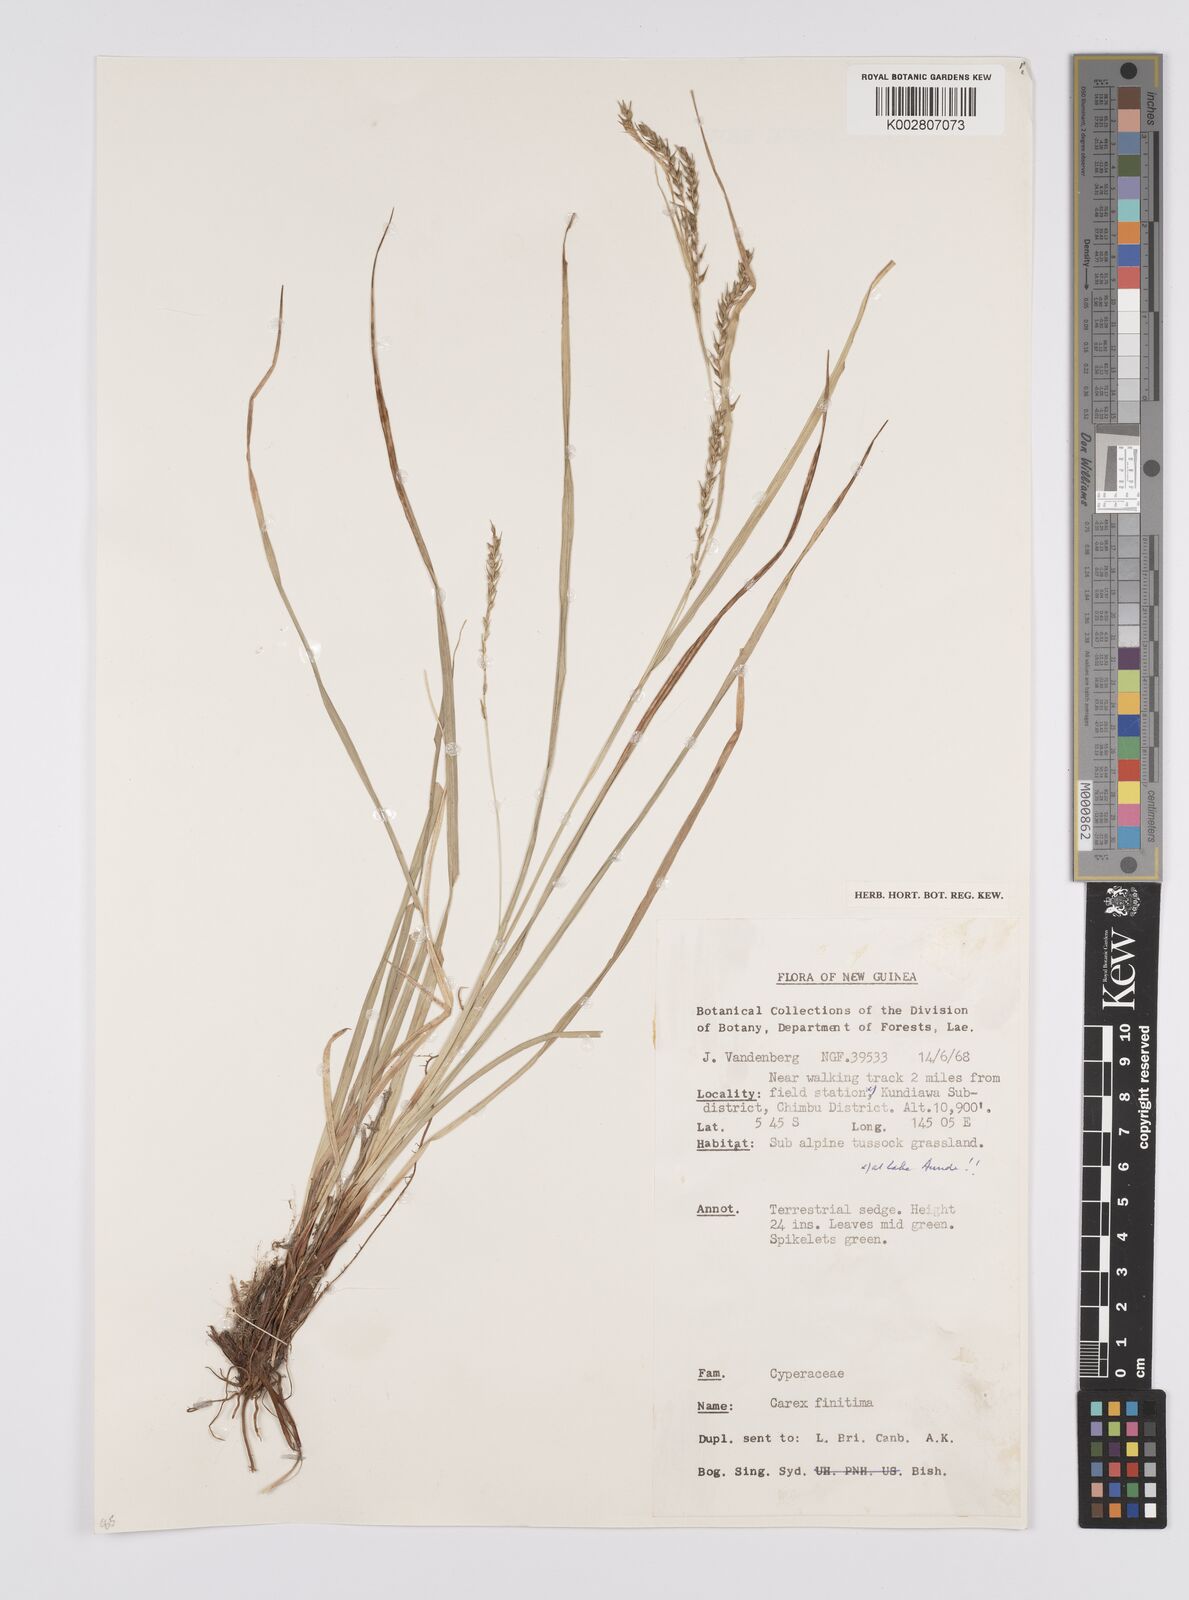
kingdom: Plantae
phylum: Tracheophyta
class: Liliopsida
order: Poales
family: Cyperaceae
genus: Carex
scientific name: Carex finitima
